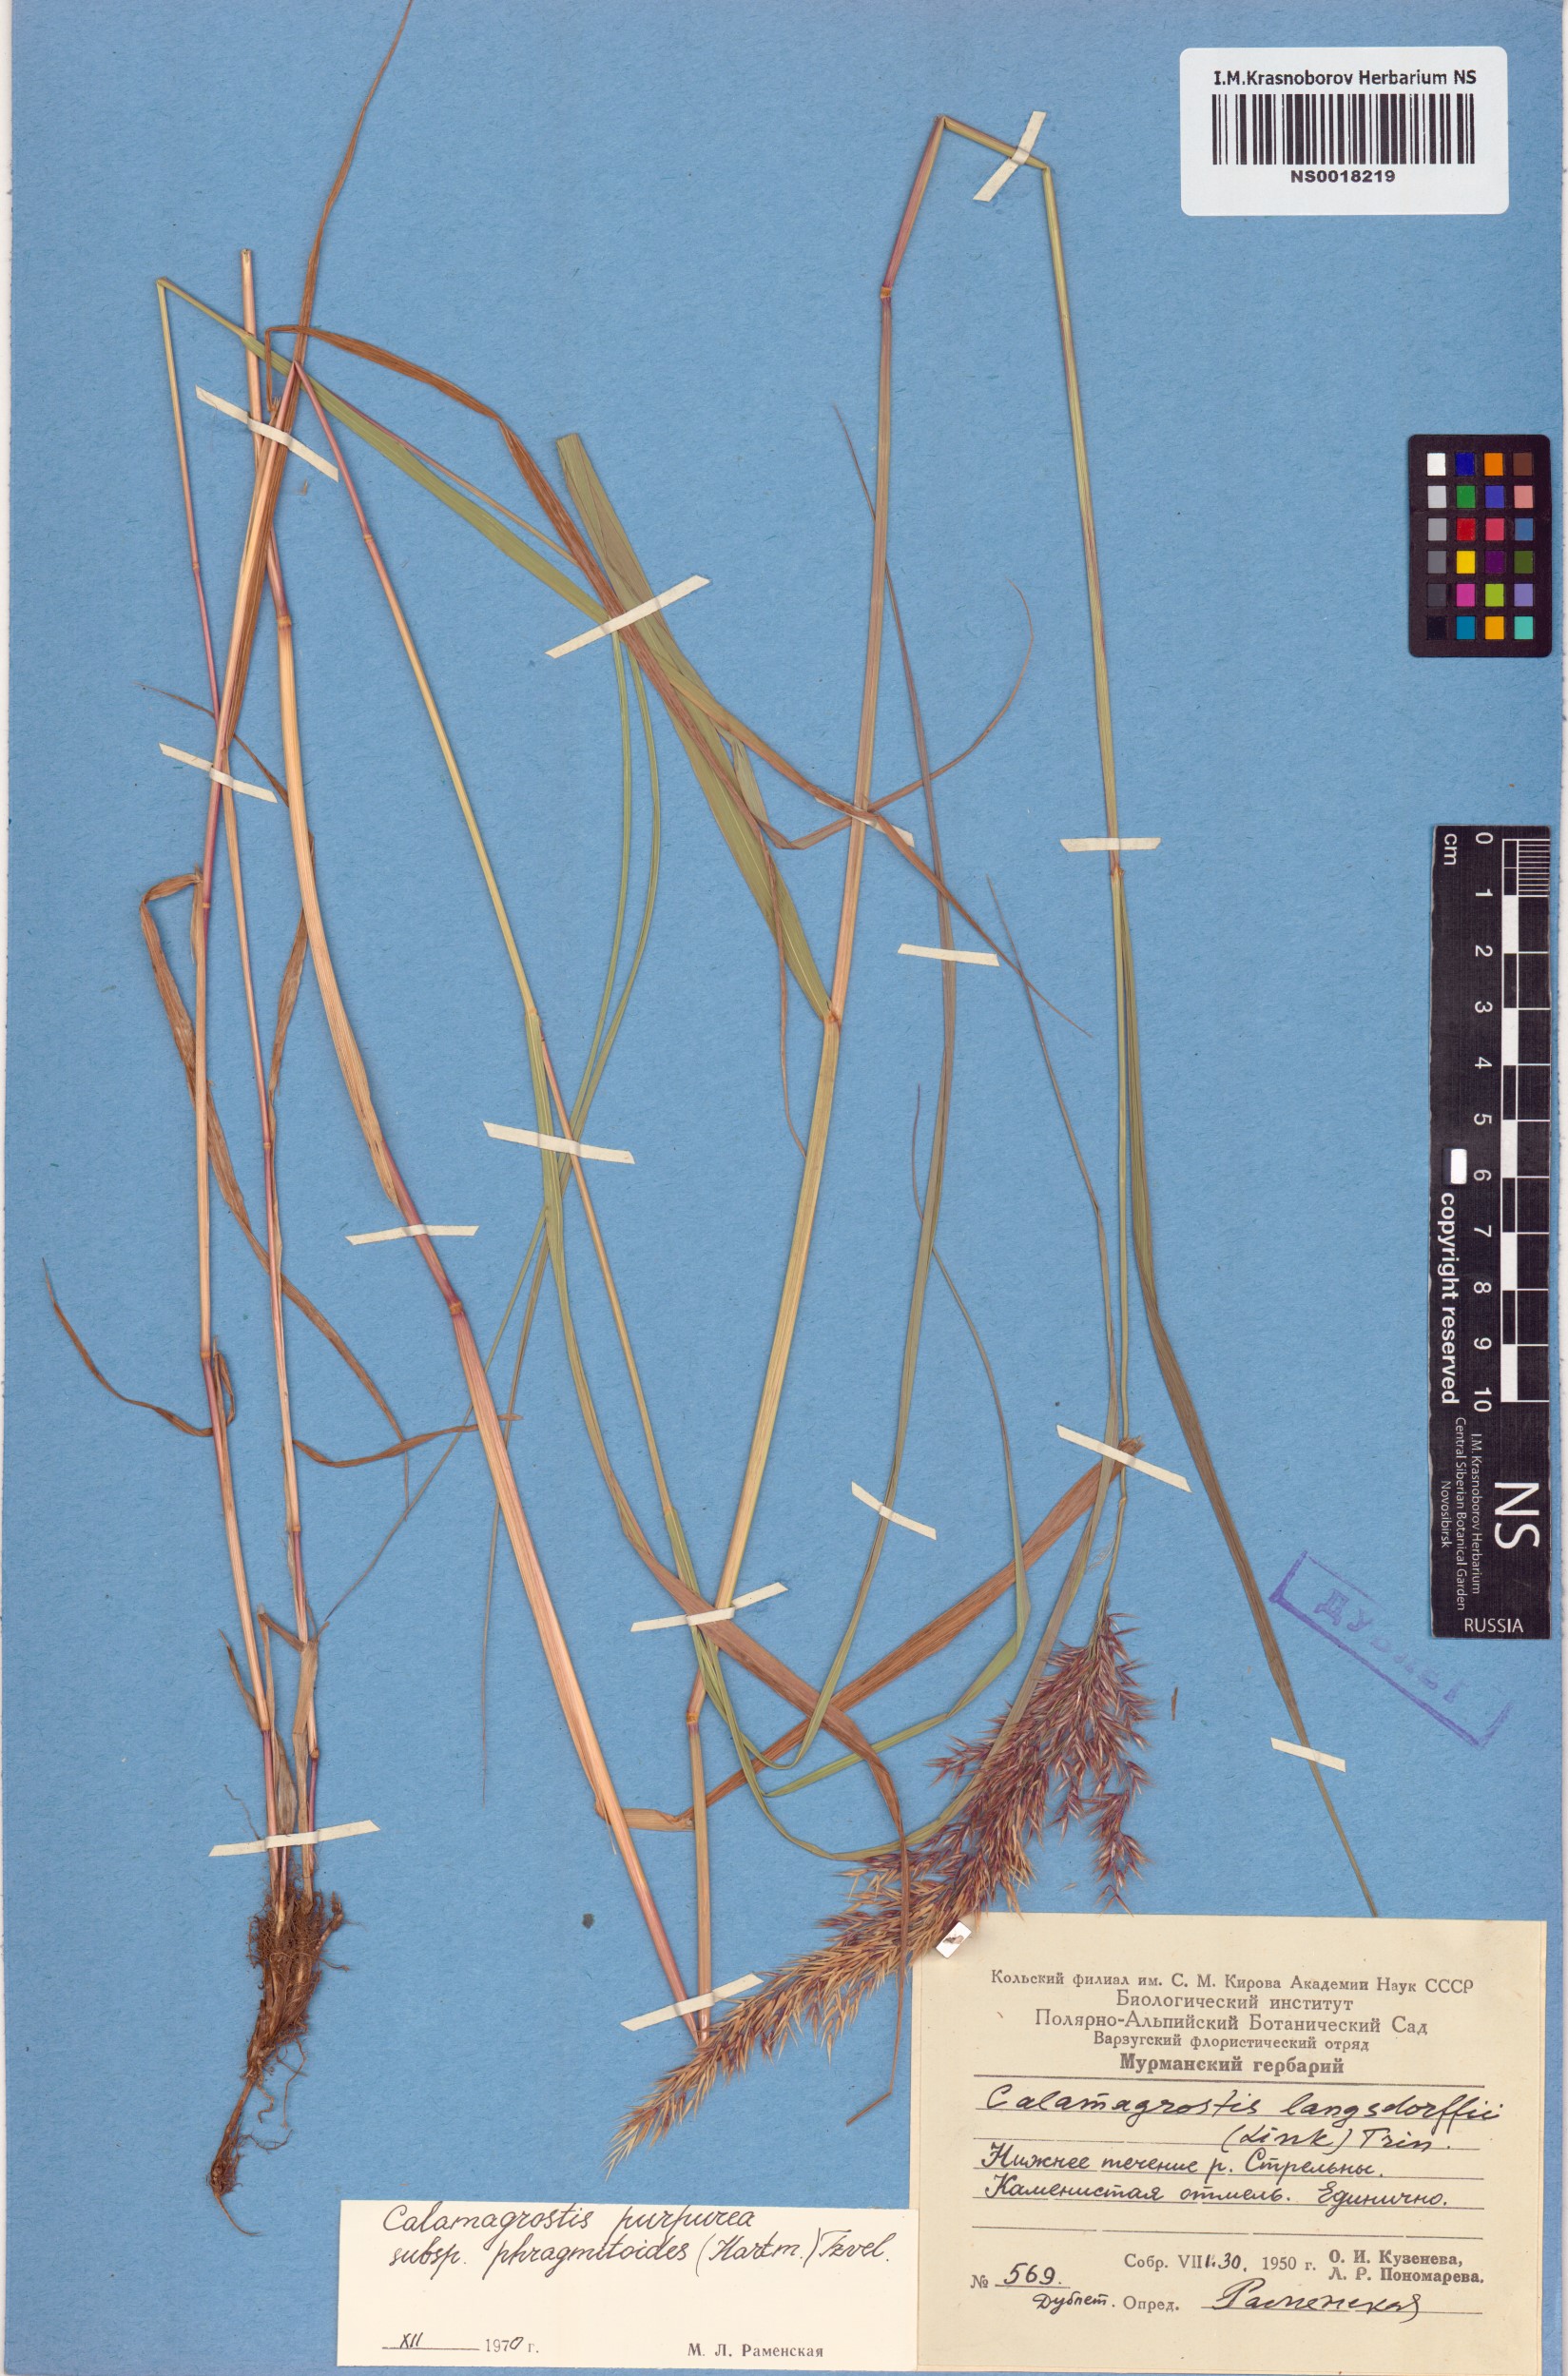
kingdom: Plantae
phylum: Tracheophyta
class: Liliopsida
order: Poales
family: Poaceae
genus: Calamagrostis
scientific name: Calamagrostis purpurea
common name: Scandinavian small-reed
